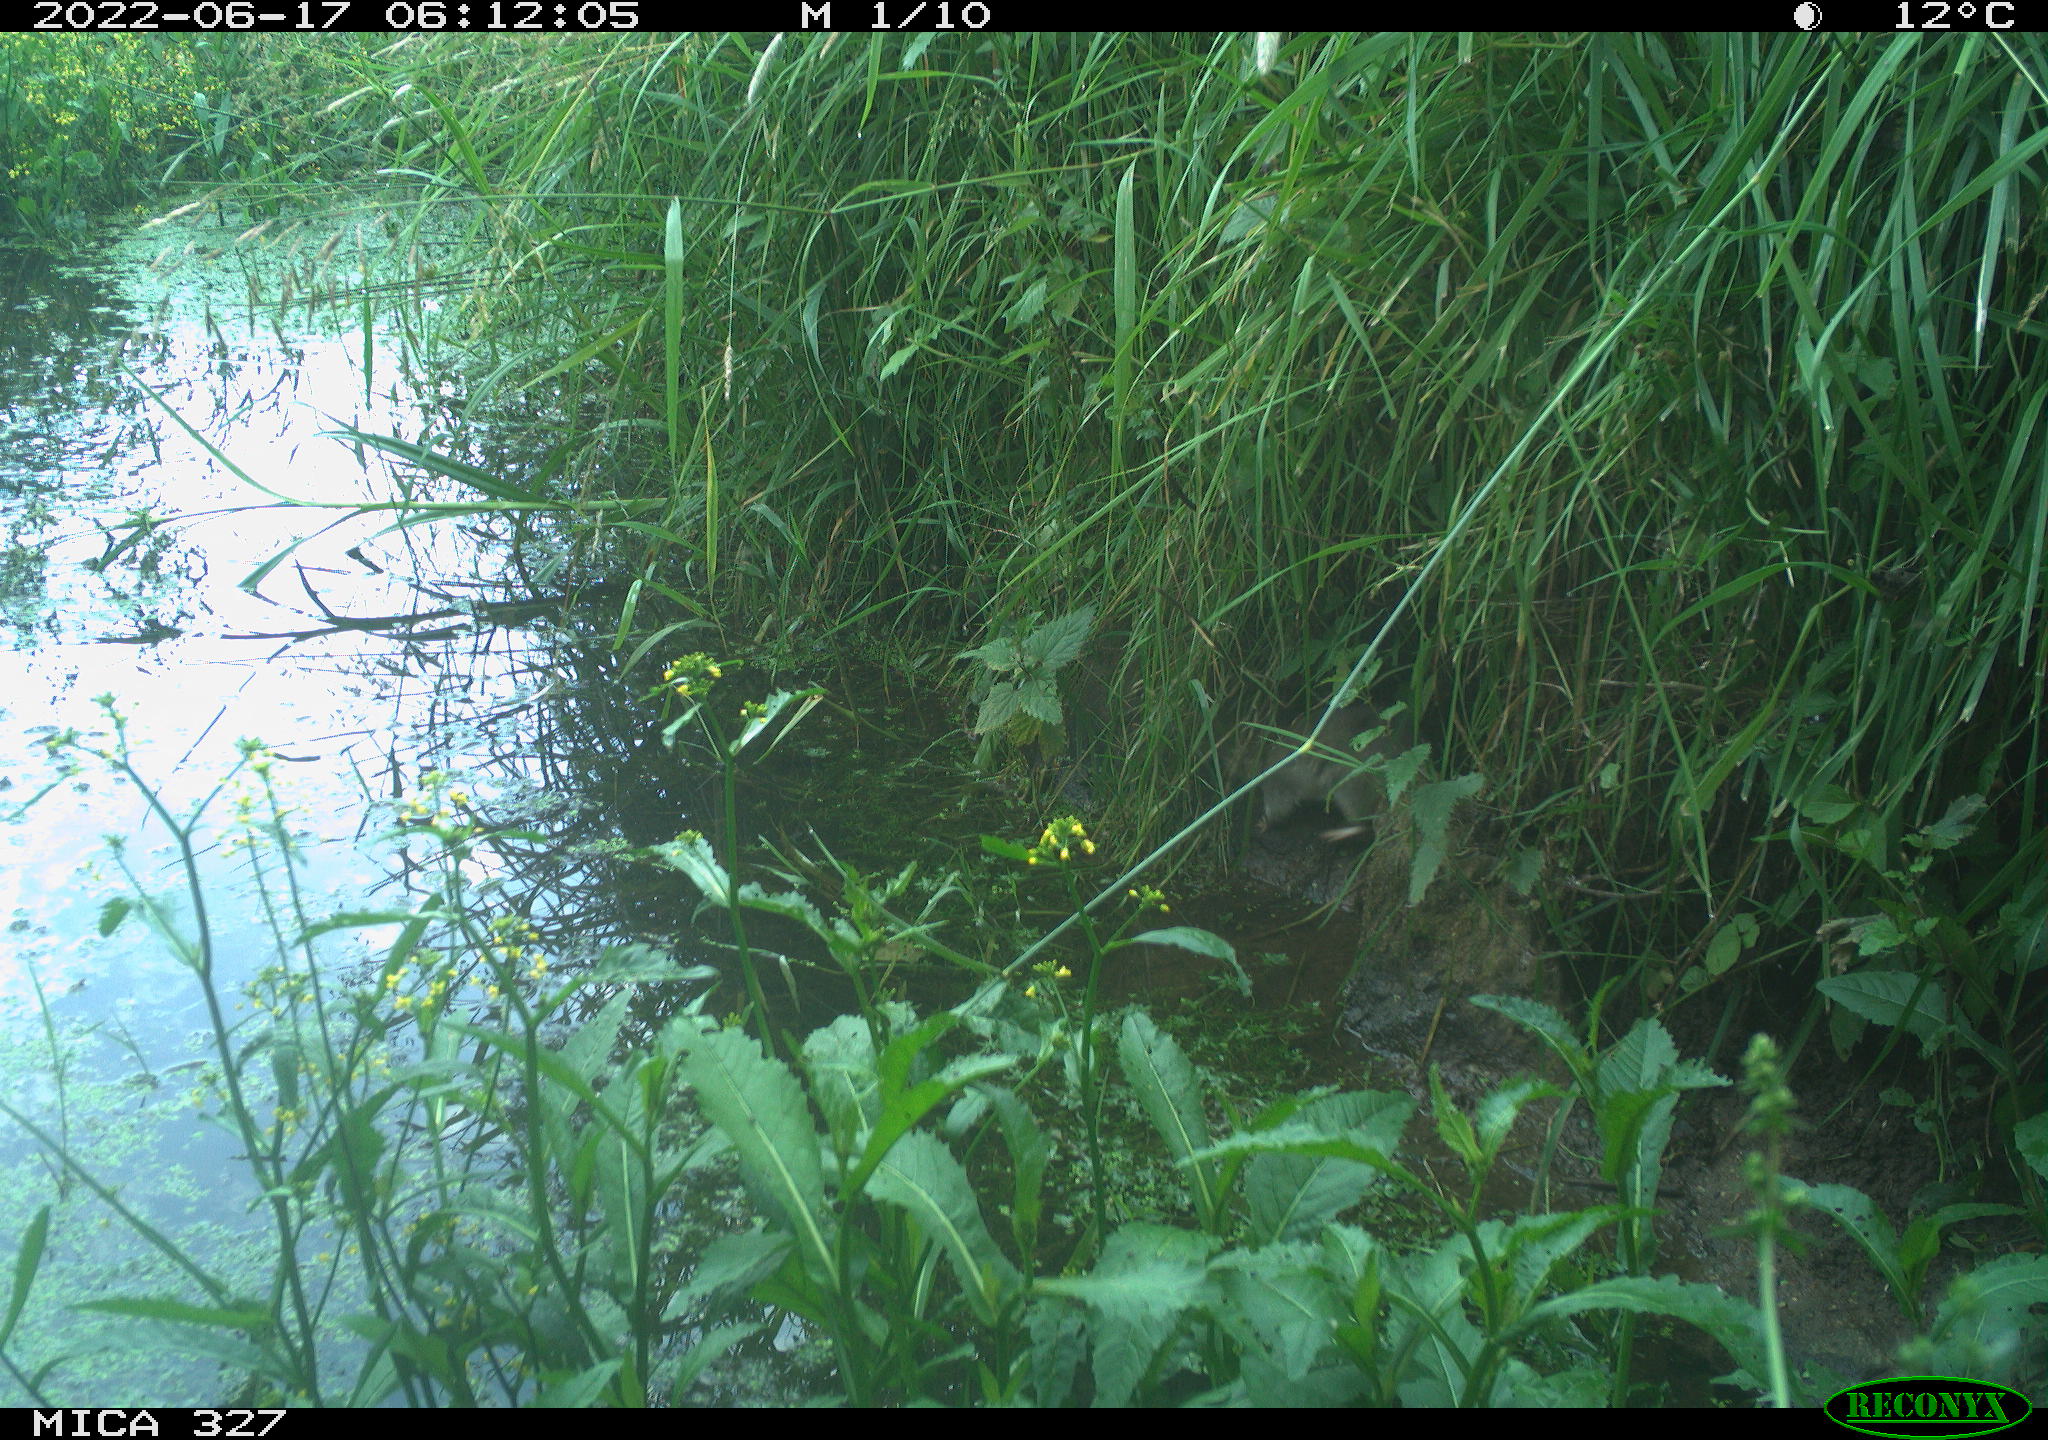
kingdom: Animalia
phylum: Chordata
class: Mammalia
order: Rodentia
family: Muridae
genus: Rattus
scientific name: Rattus norvegicus
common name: Brown rat
